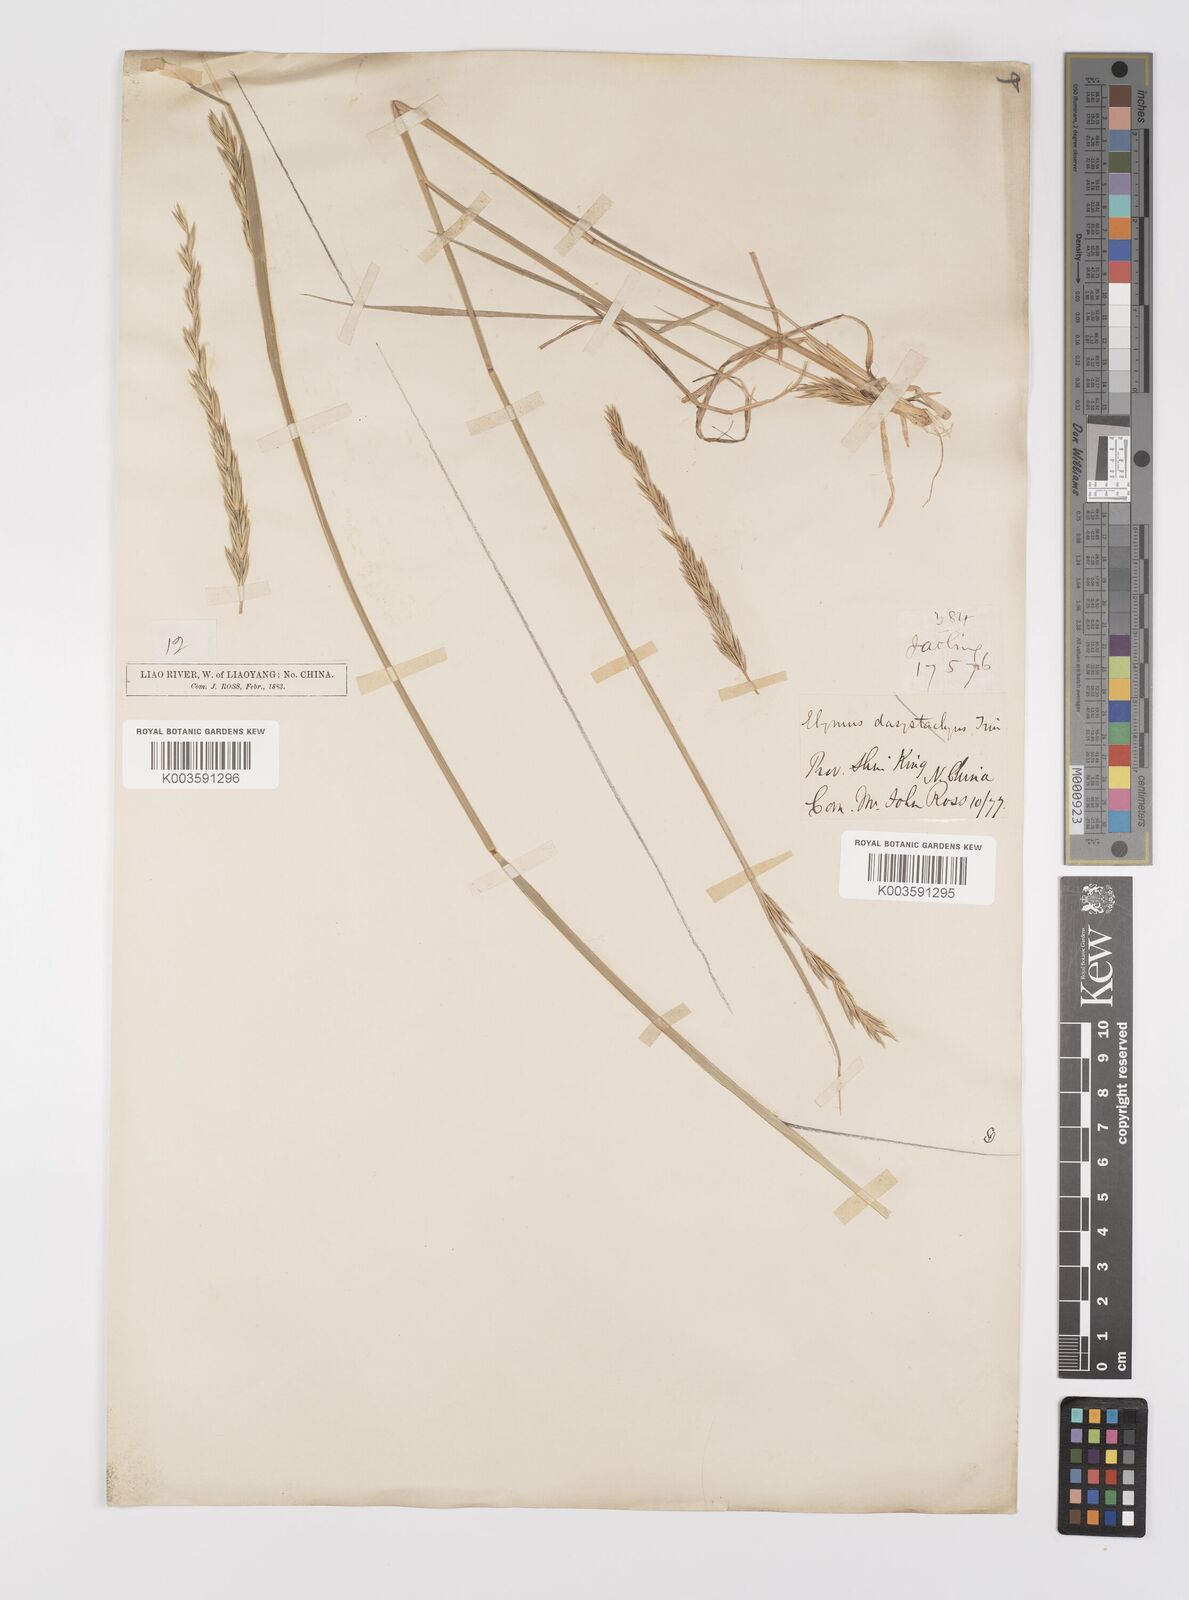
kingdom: Plantae
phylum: Tracheophyta
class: Liliopsida
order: Poales
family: Poaceae
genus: Leymus
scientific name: Leymus secalinus
